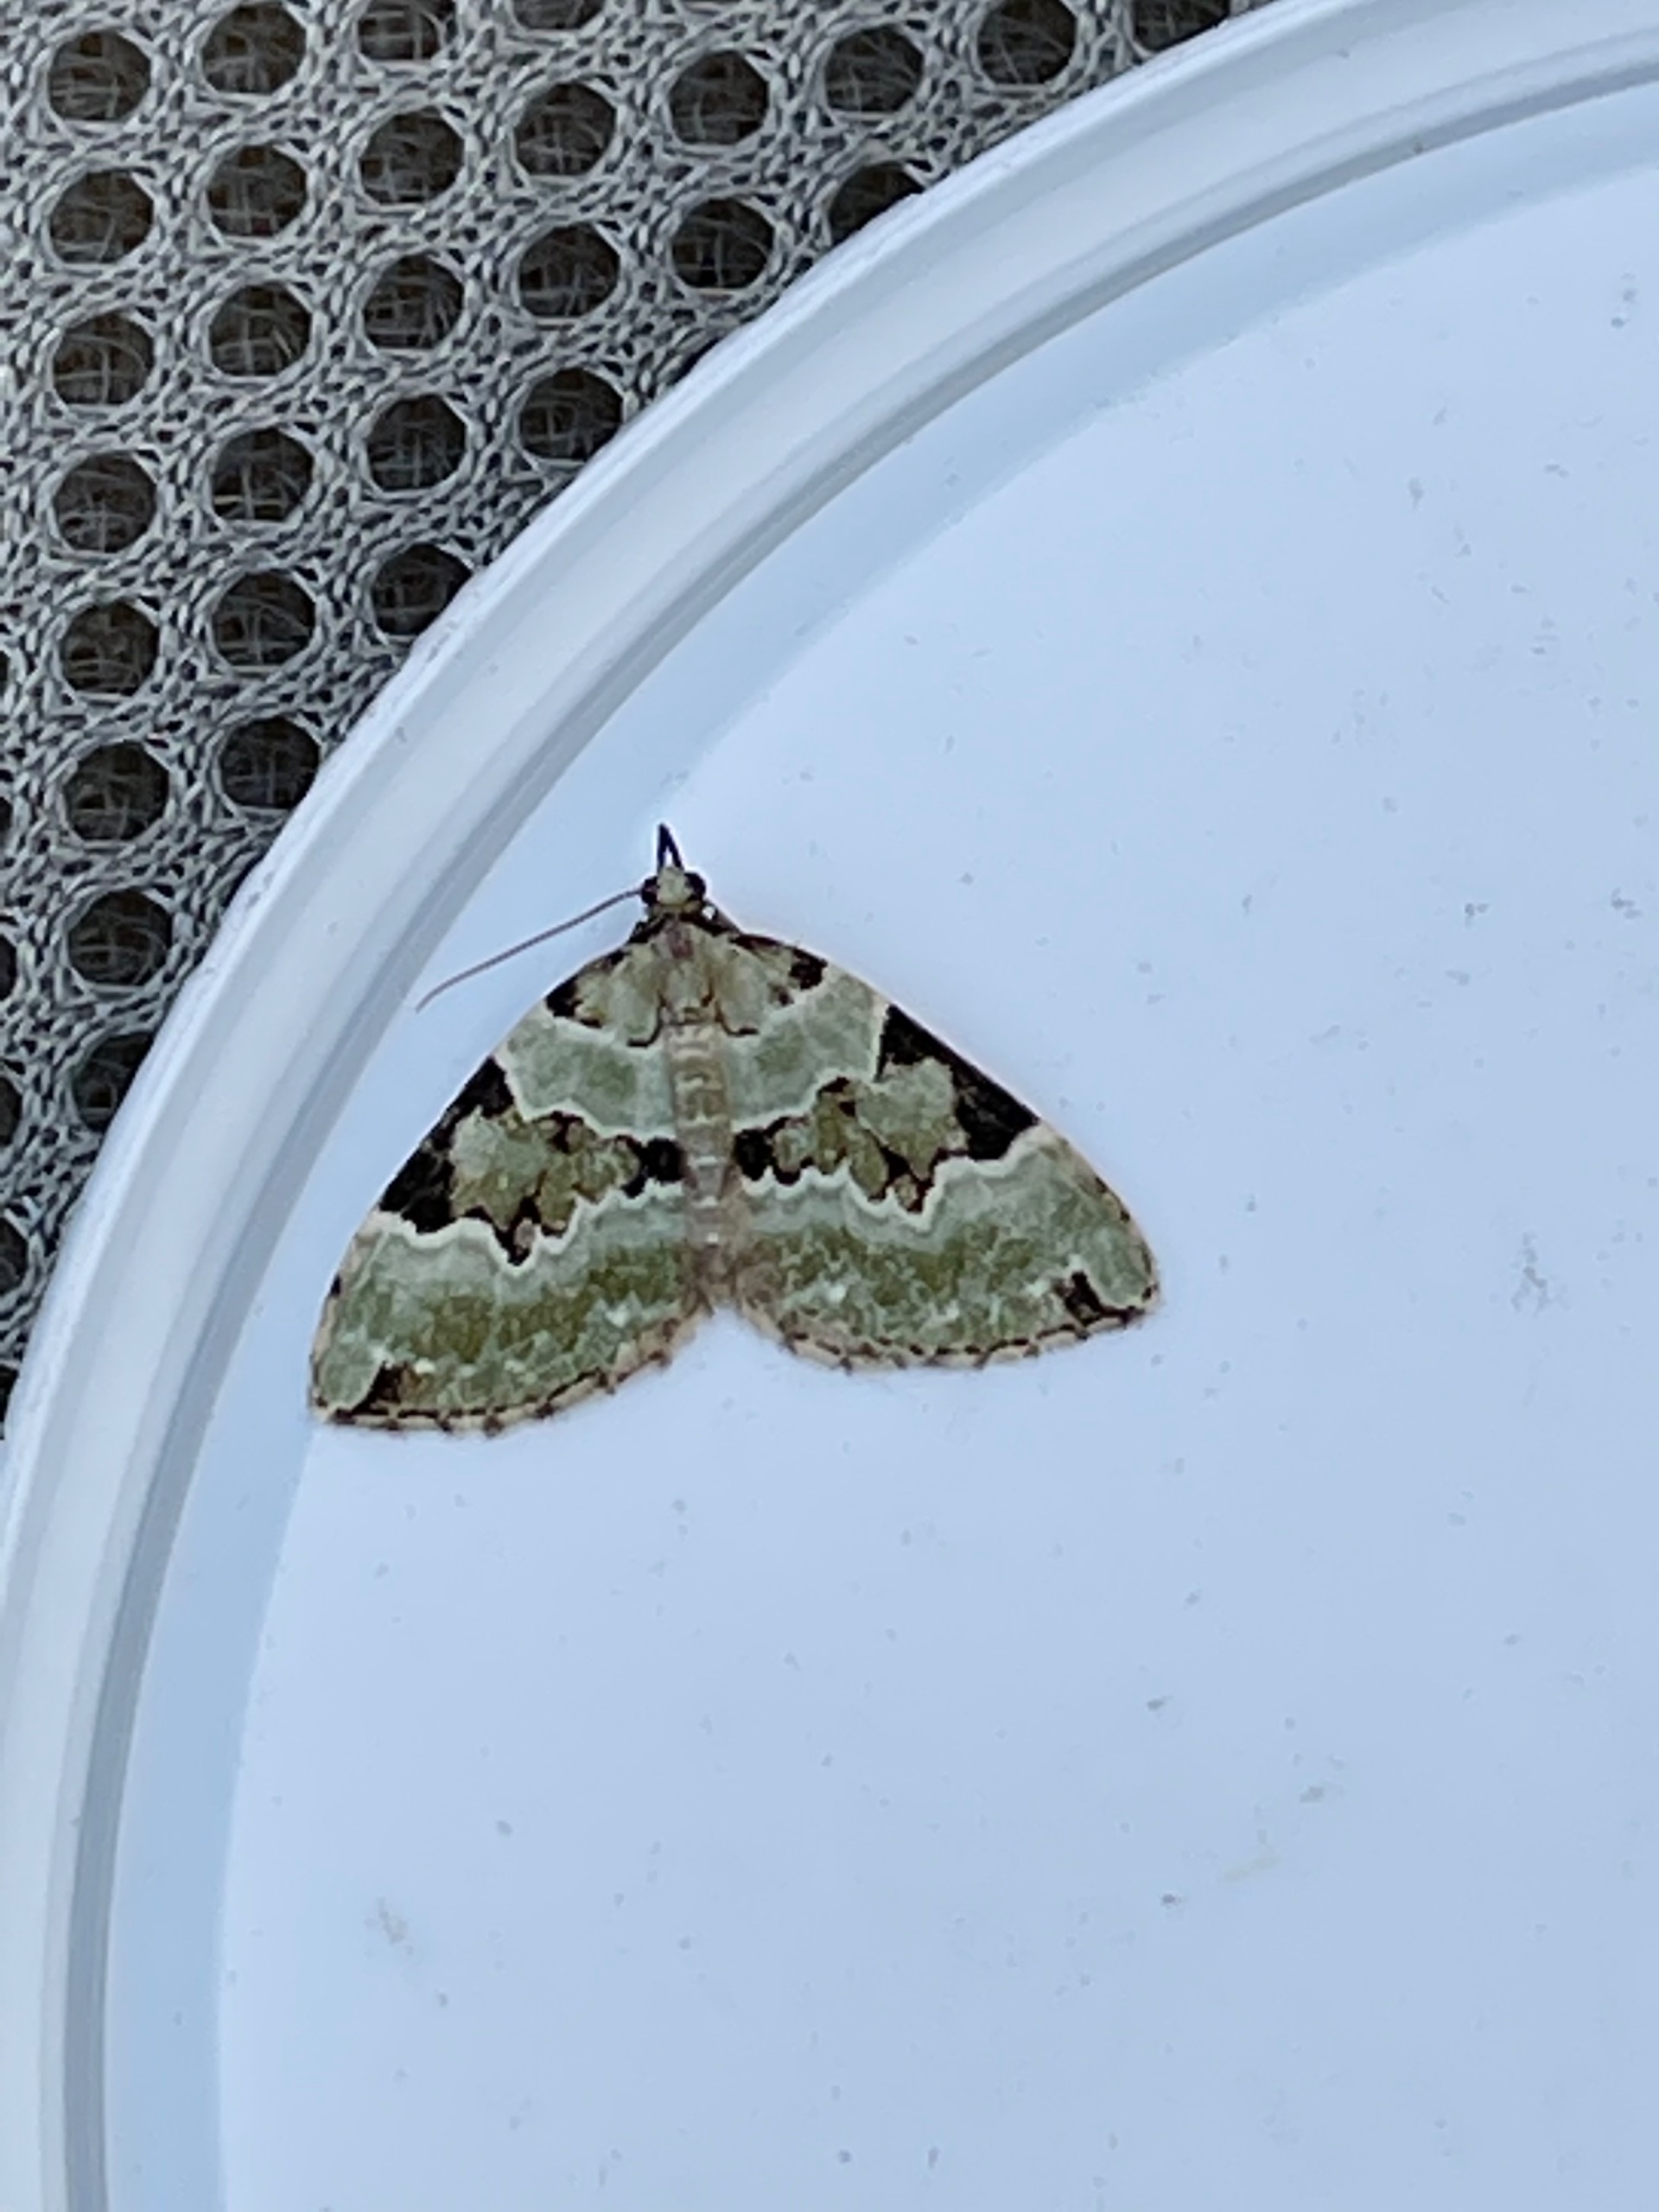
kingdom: Animalia
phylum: Arthropoda
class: Insecta
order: Lepidoptera
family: Geometridae
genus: Colostygia
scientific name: Colostygia pectinataria
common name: Grøn bladmåler
